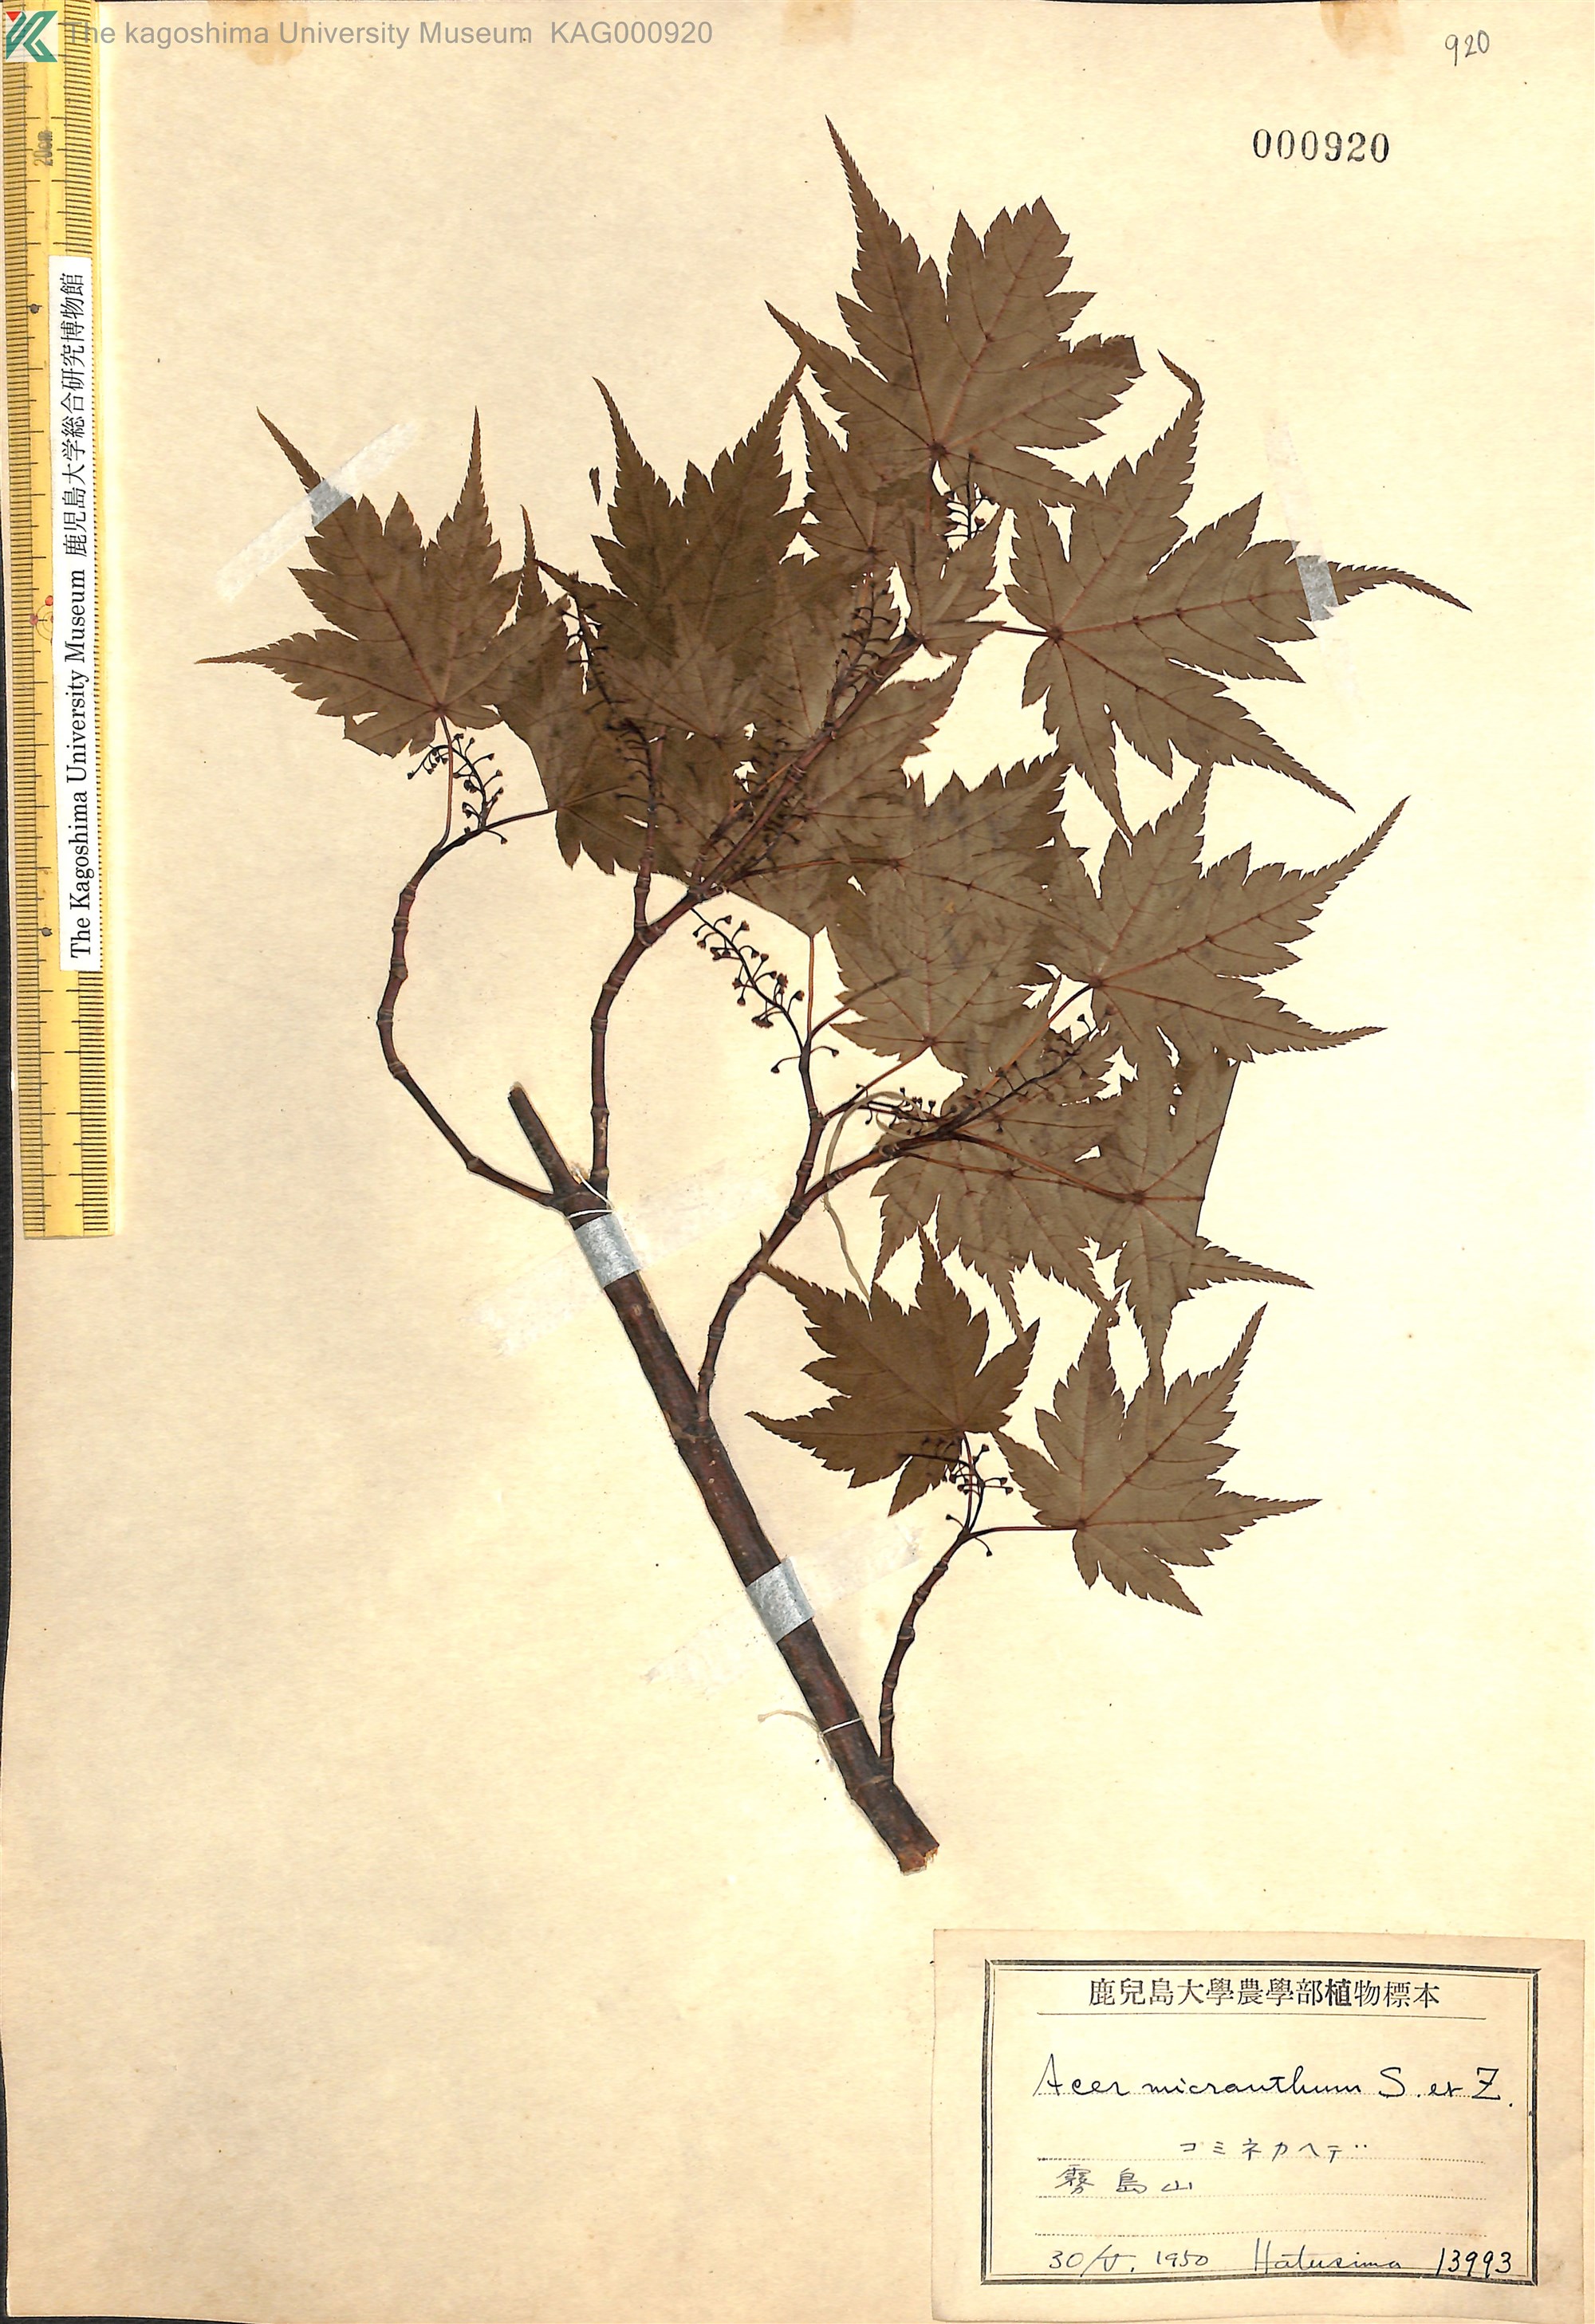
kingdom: Plantae
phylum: Tracheophyta
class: Magnoliopsida
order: Sapindales
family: Sapindaceae
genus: Acer
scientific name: Acer micranthum
